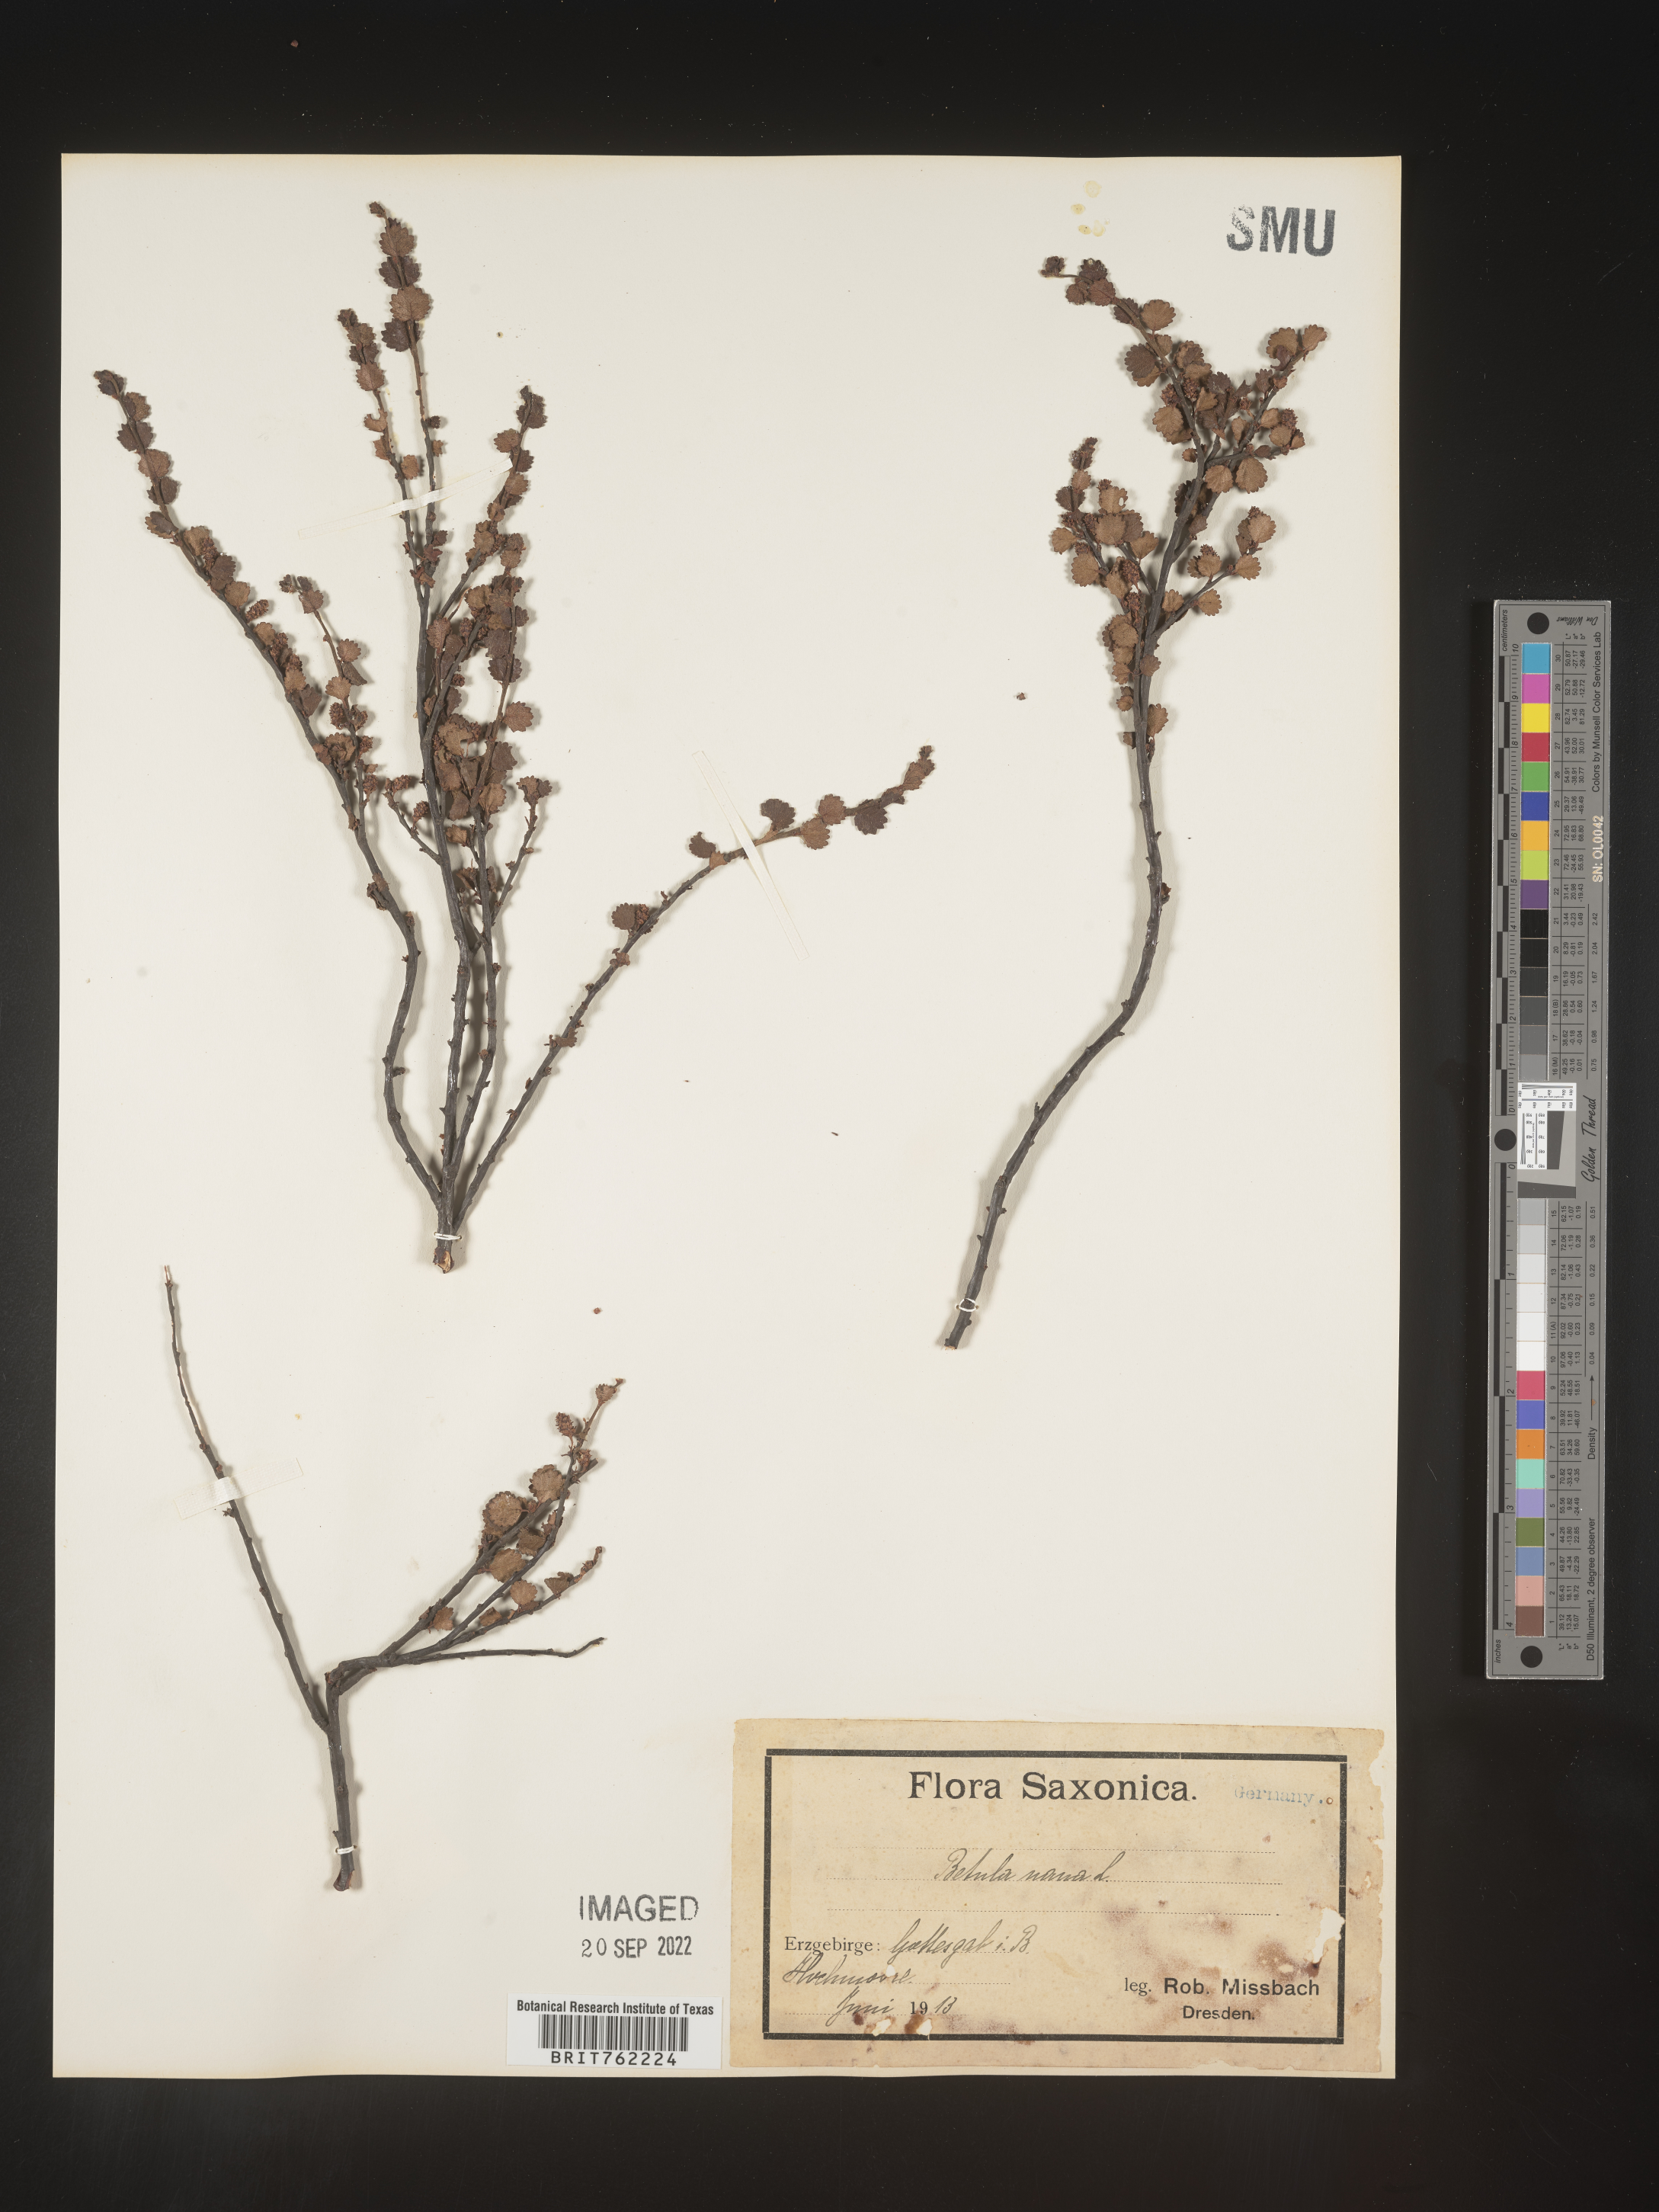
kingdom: Plantae
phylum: Tracheophyta
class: Magnoliopsida
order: Fagales
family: Betulaceae
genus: Betula
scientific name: Betula
